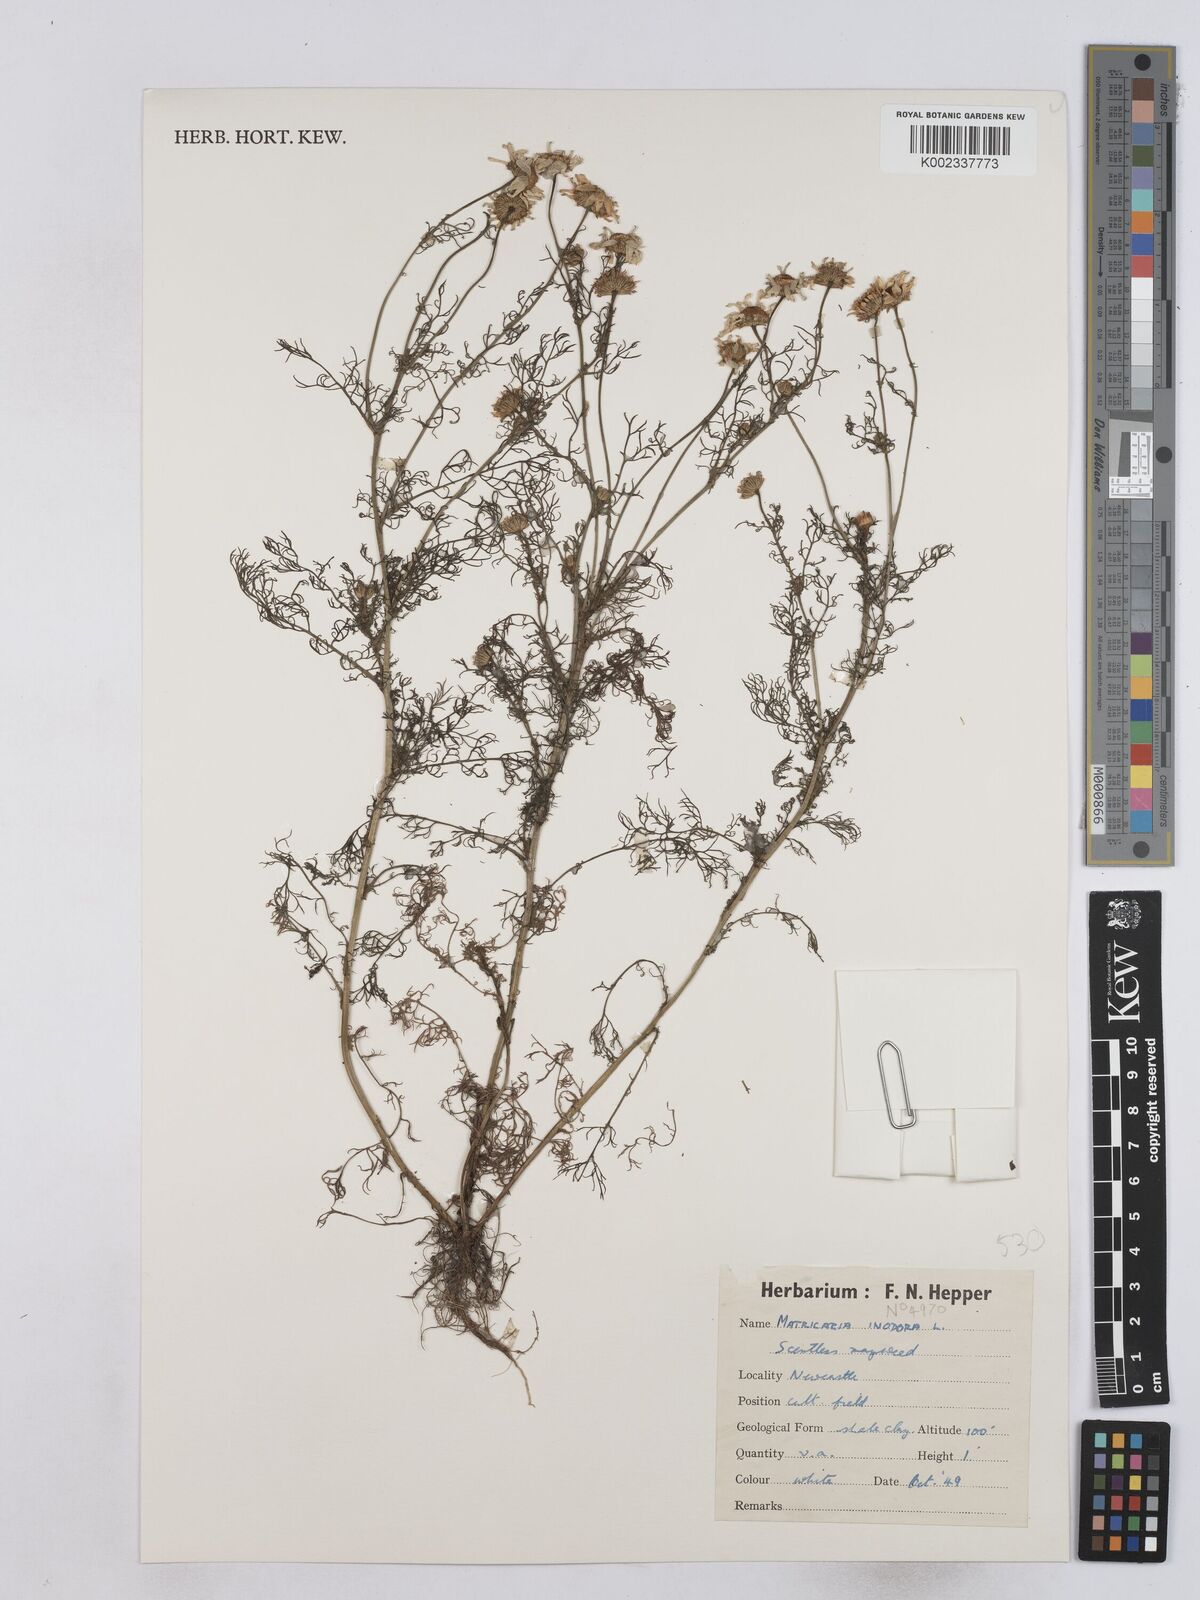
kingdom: Plantae
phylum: Tracheophyta
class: Magnoliopsida
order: Asterales
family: Asteraceae
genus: Matricaria
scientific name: Matricaria chamomilla
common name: Scented mayweed
